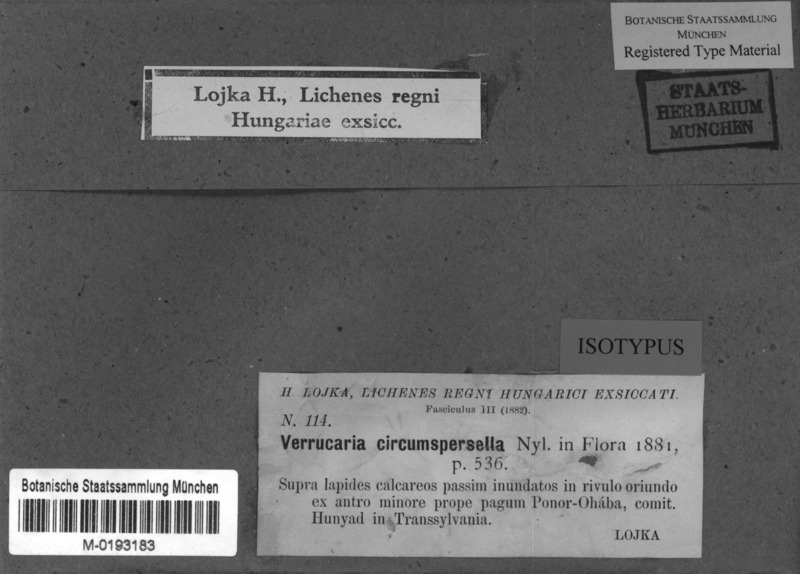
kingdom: Fungi
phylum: Ascomycota
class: Eurotiomycetes
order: Verrucariales
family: Verrucariaceae
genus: Thelidium
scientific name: Thelidium circumspersellum
